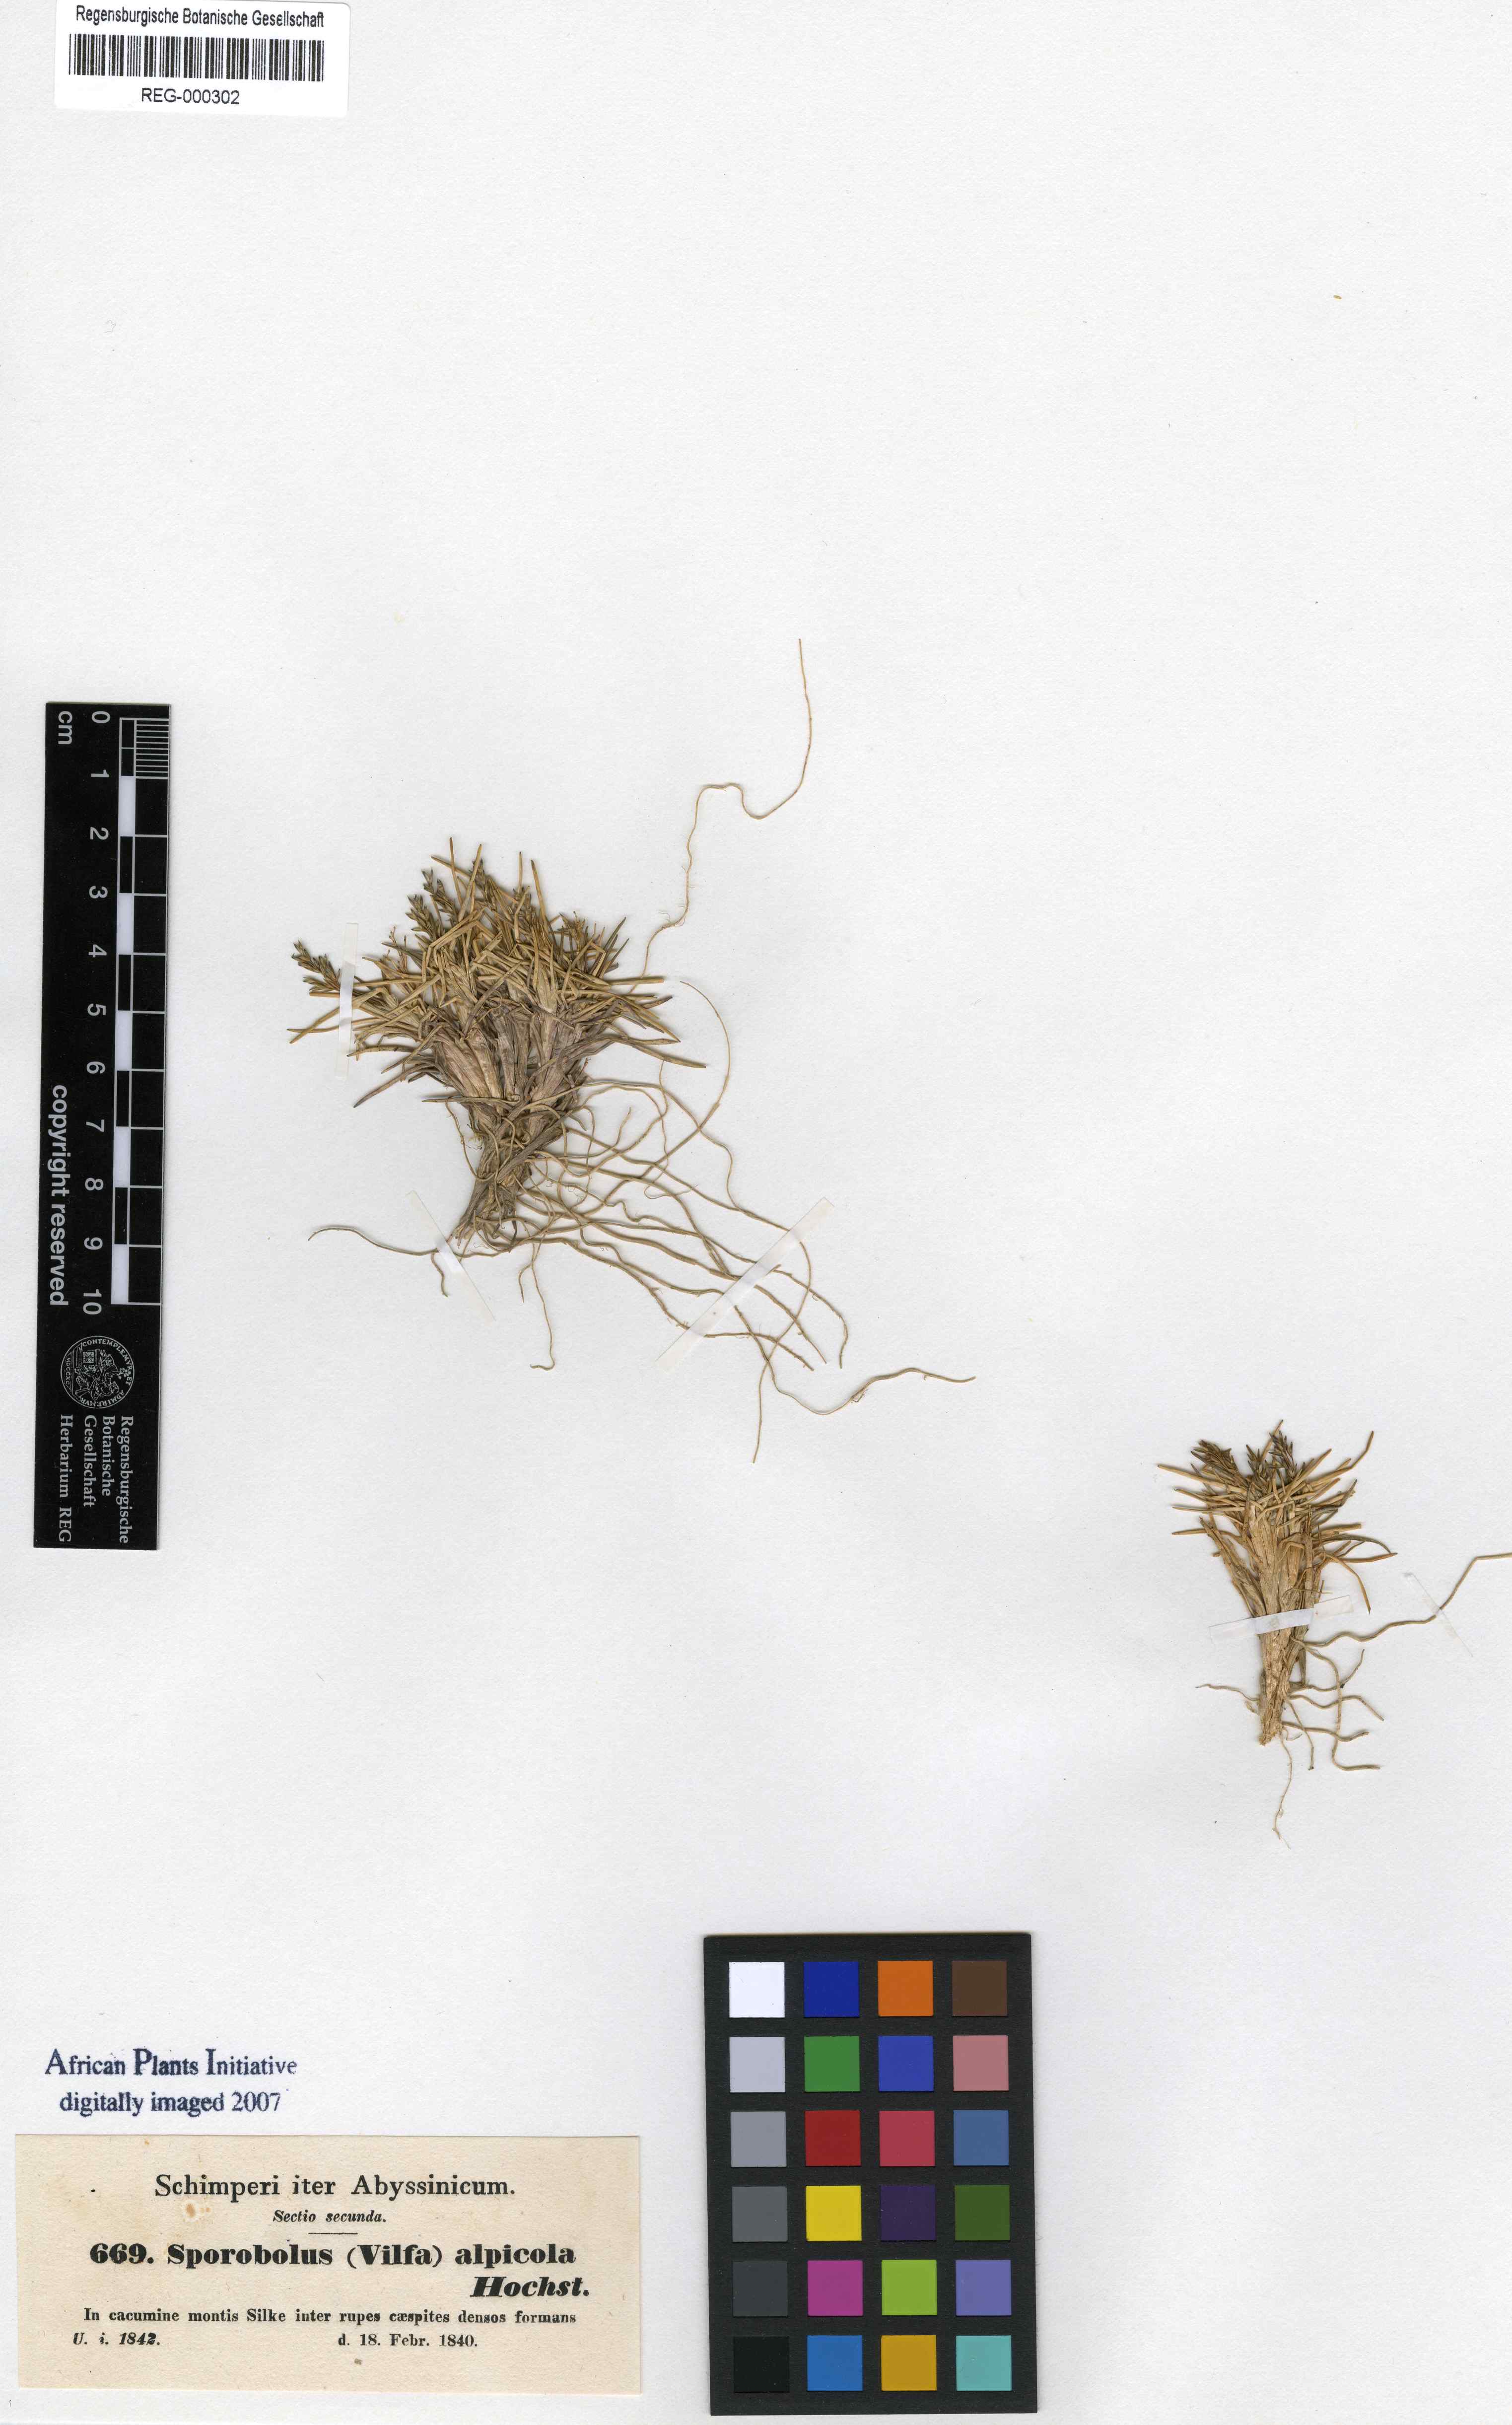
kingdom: Plantae
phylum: Tracheophyta
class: Liliopsida
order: Poales
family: Poaceae
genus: Agrostis
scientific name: Agrostis sclerophylla
